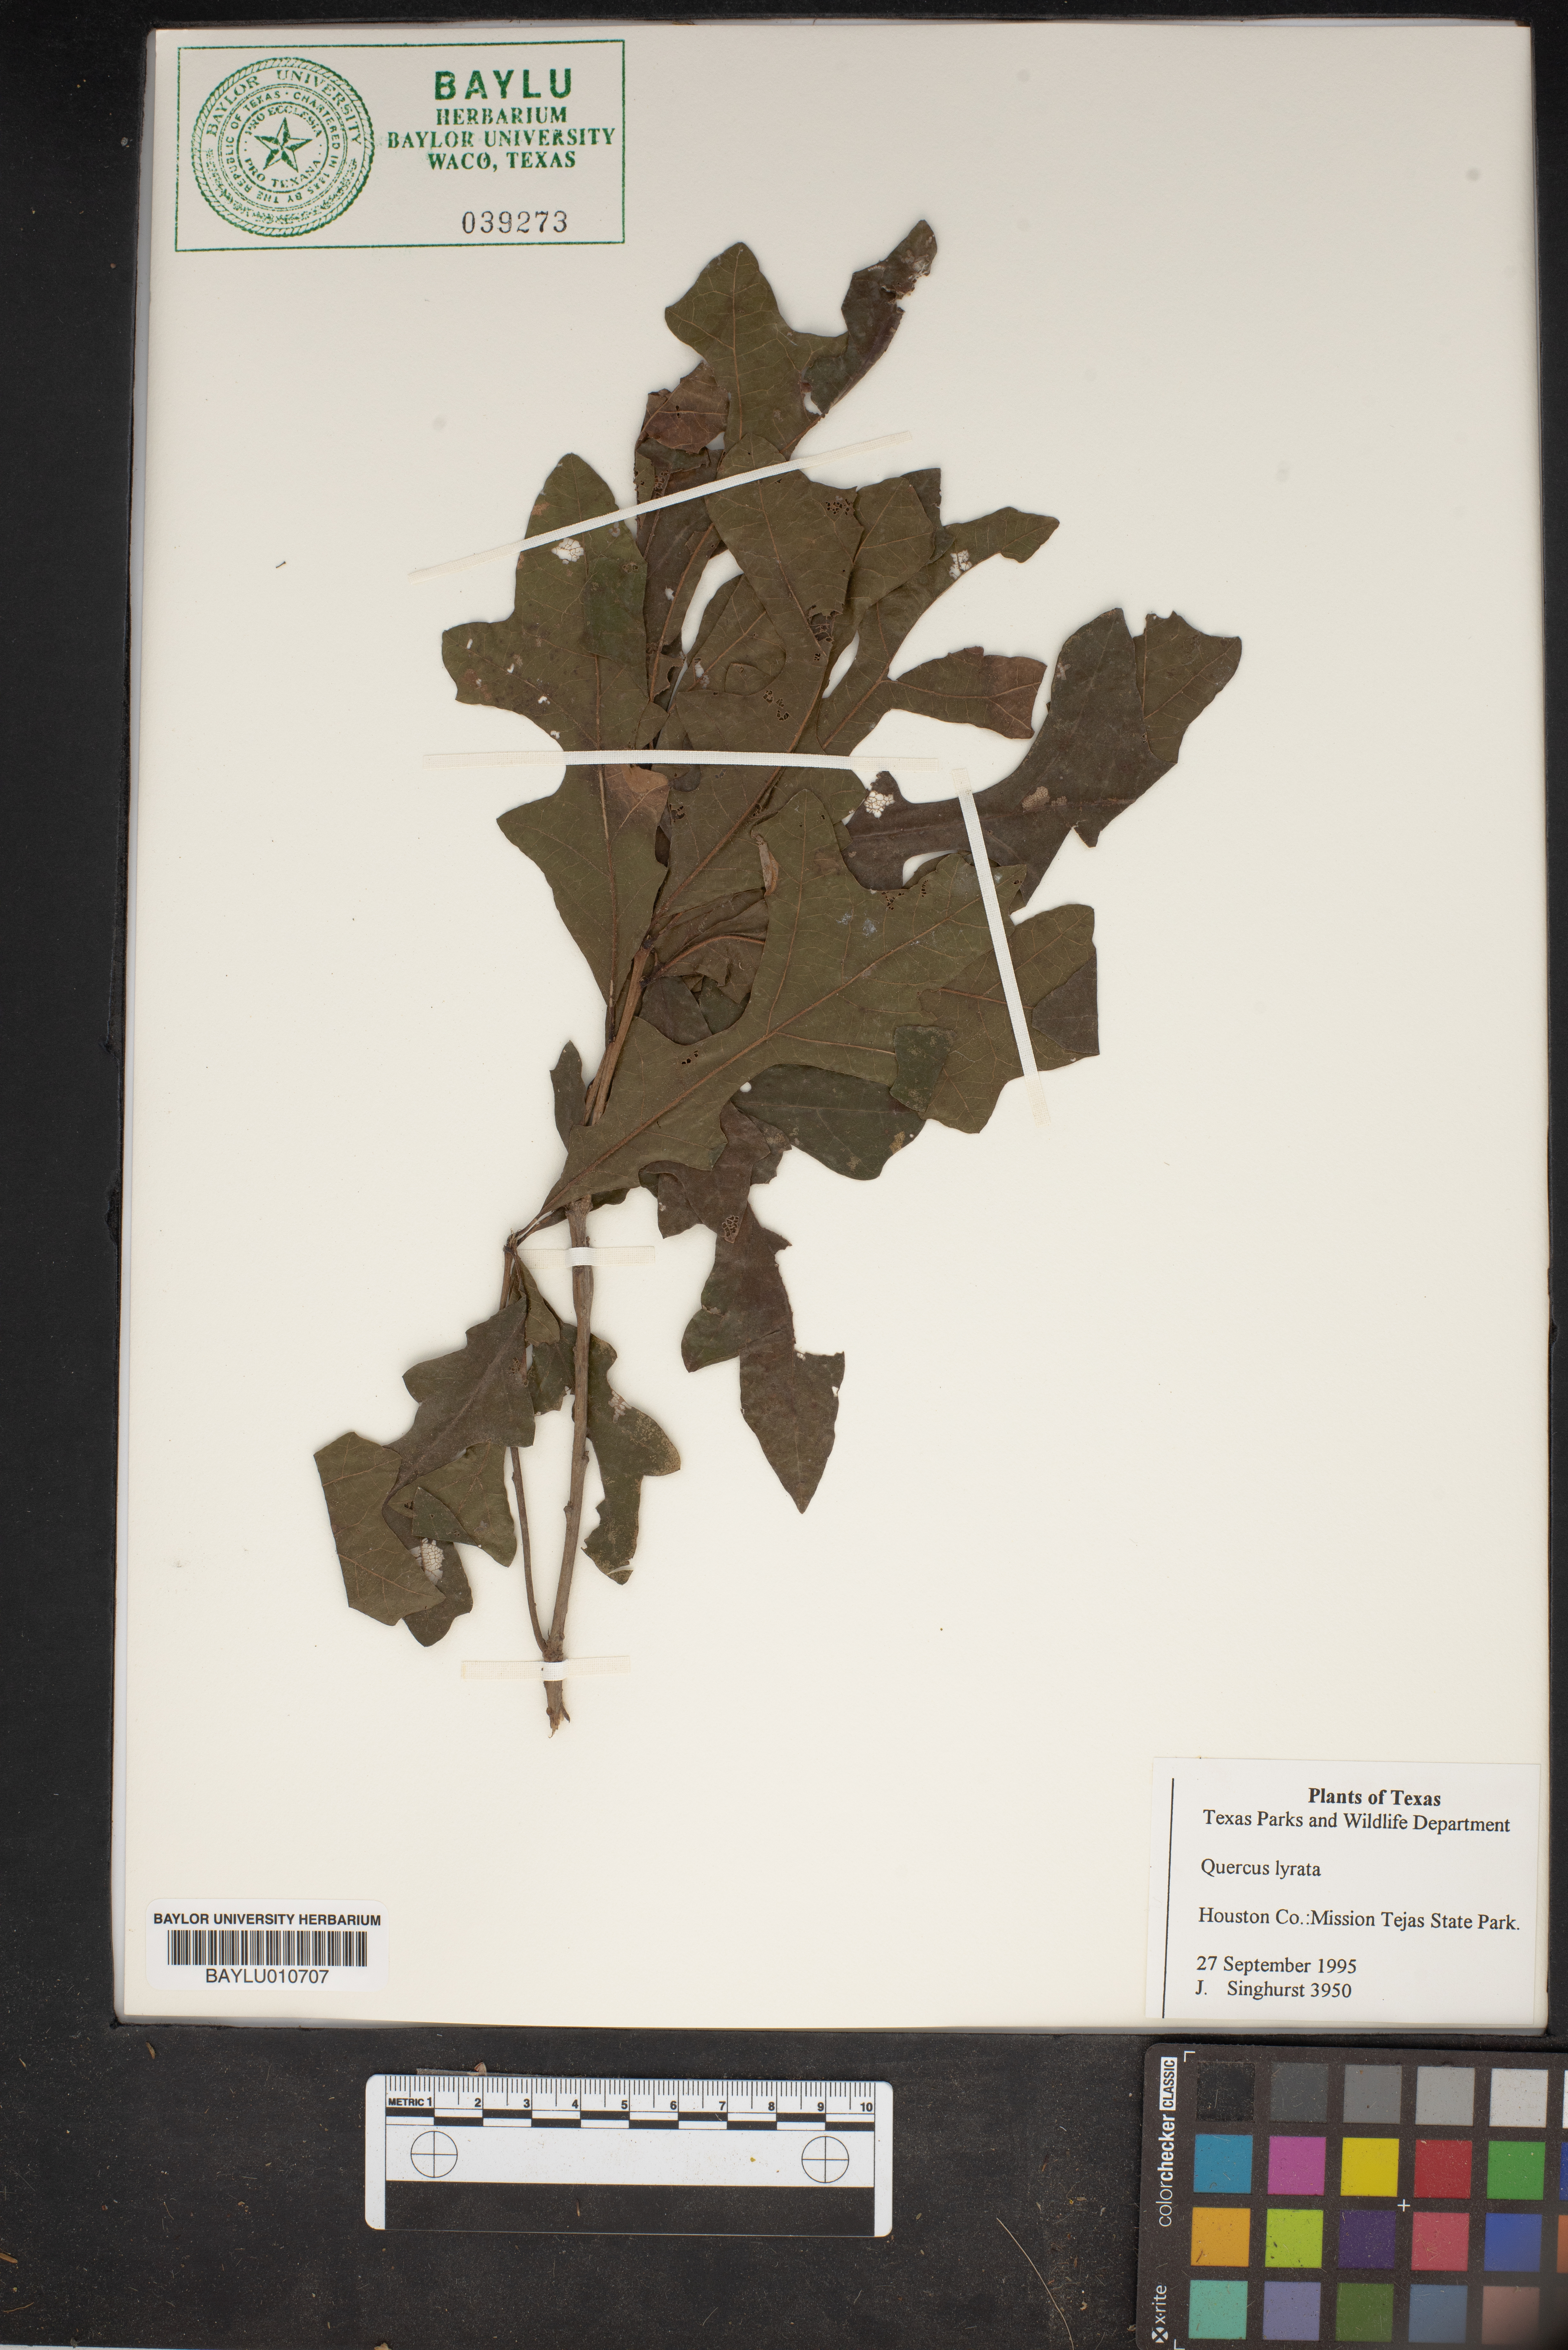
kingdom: Plantae
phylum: Tracheophyta
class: Magnoliopsida
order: Fagales
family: Fagaceae
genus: Quercus
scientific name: Quercus lyrata
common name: Overcup oak
